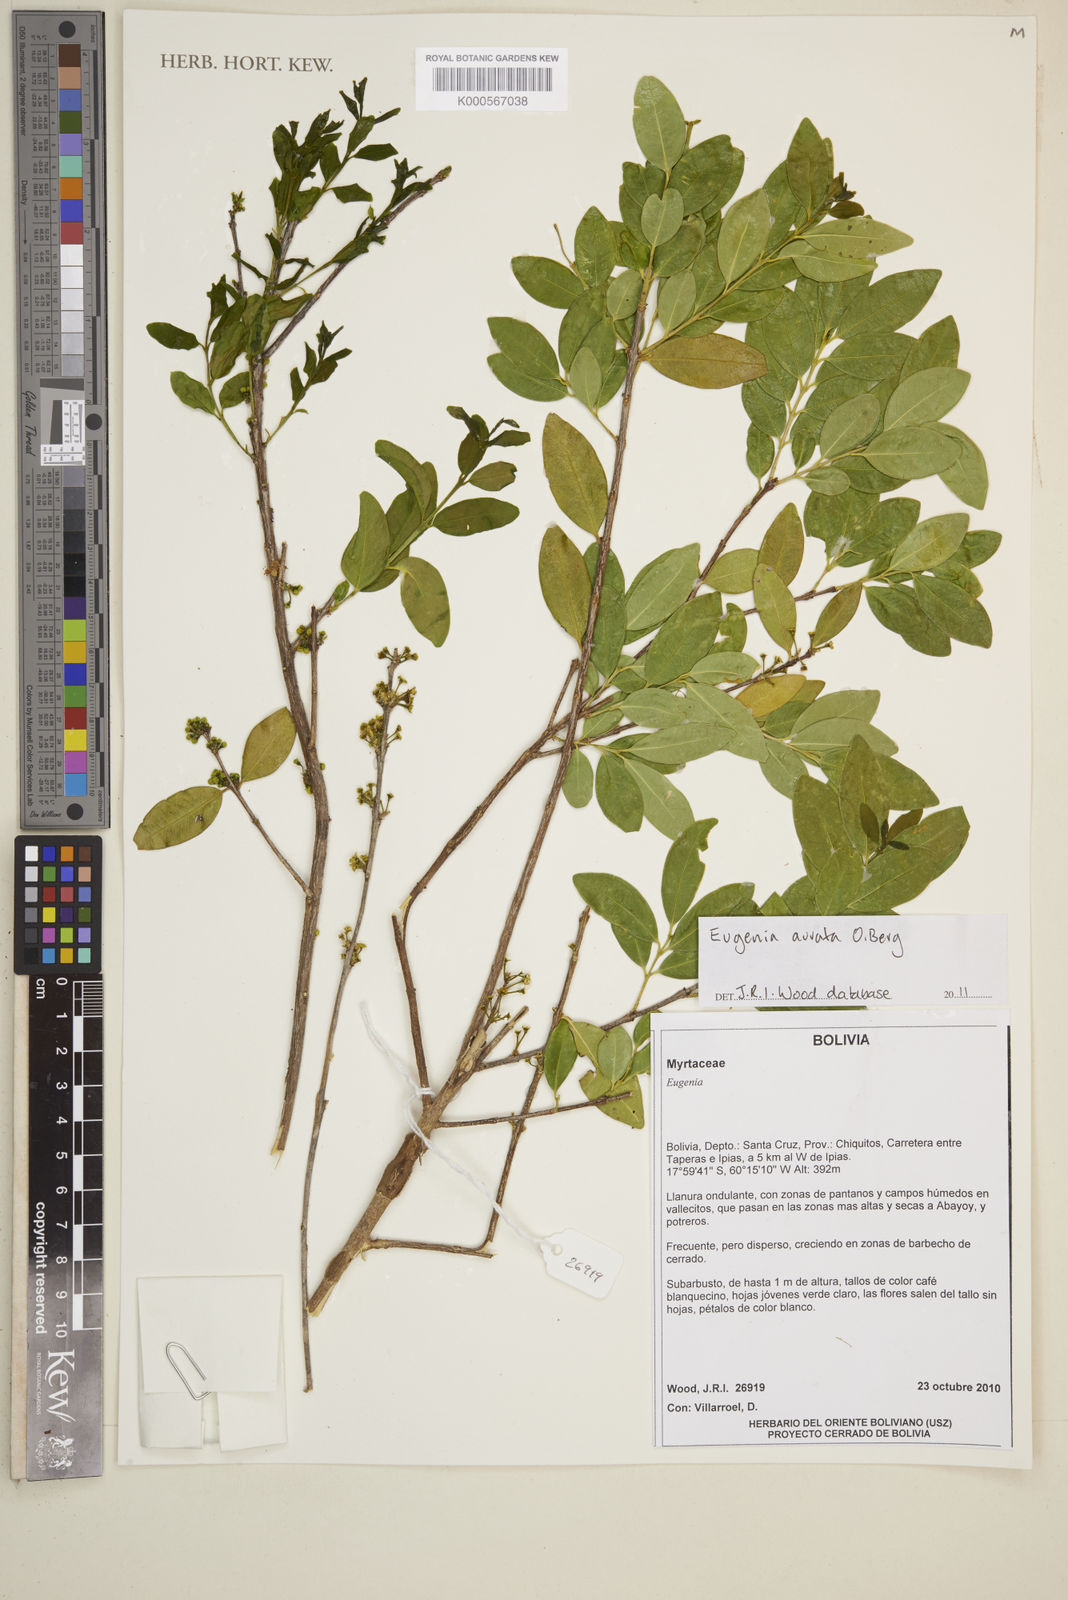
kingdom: Plantae
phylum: Tracheophyta
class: Magnoliopsida
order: Myrtales
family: Myrtaceae
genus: Eugenia
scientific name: Eugenia aurata
